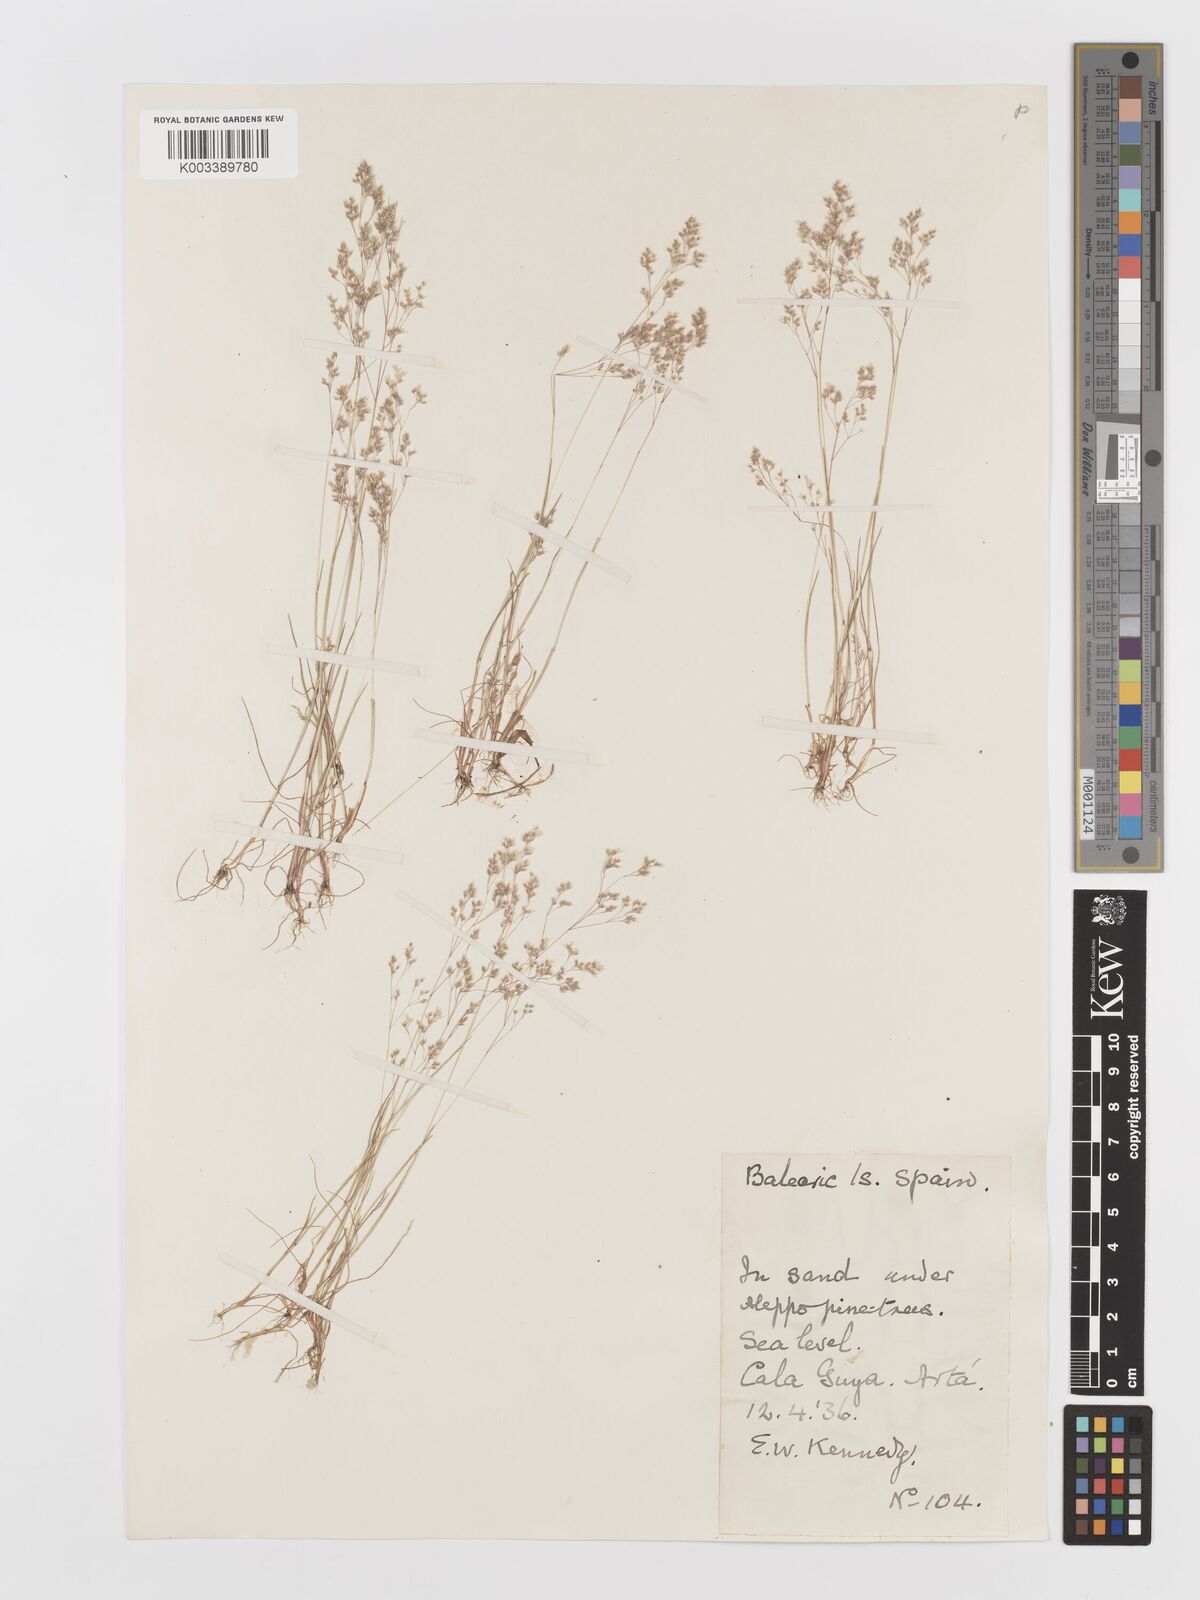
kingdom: Plantae
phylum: Tracheophyta
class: Liliopsida
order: Poales
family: Poaceae
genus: Aira
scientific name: Aira cupaniana
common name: Silver hairgrass
